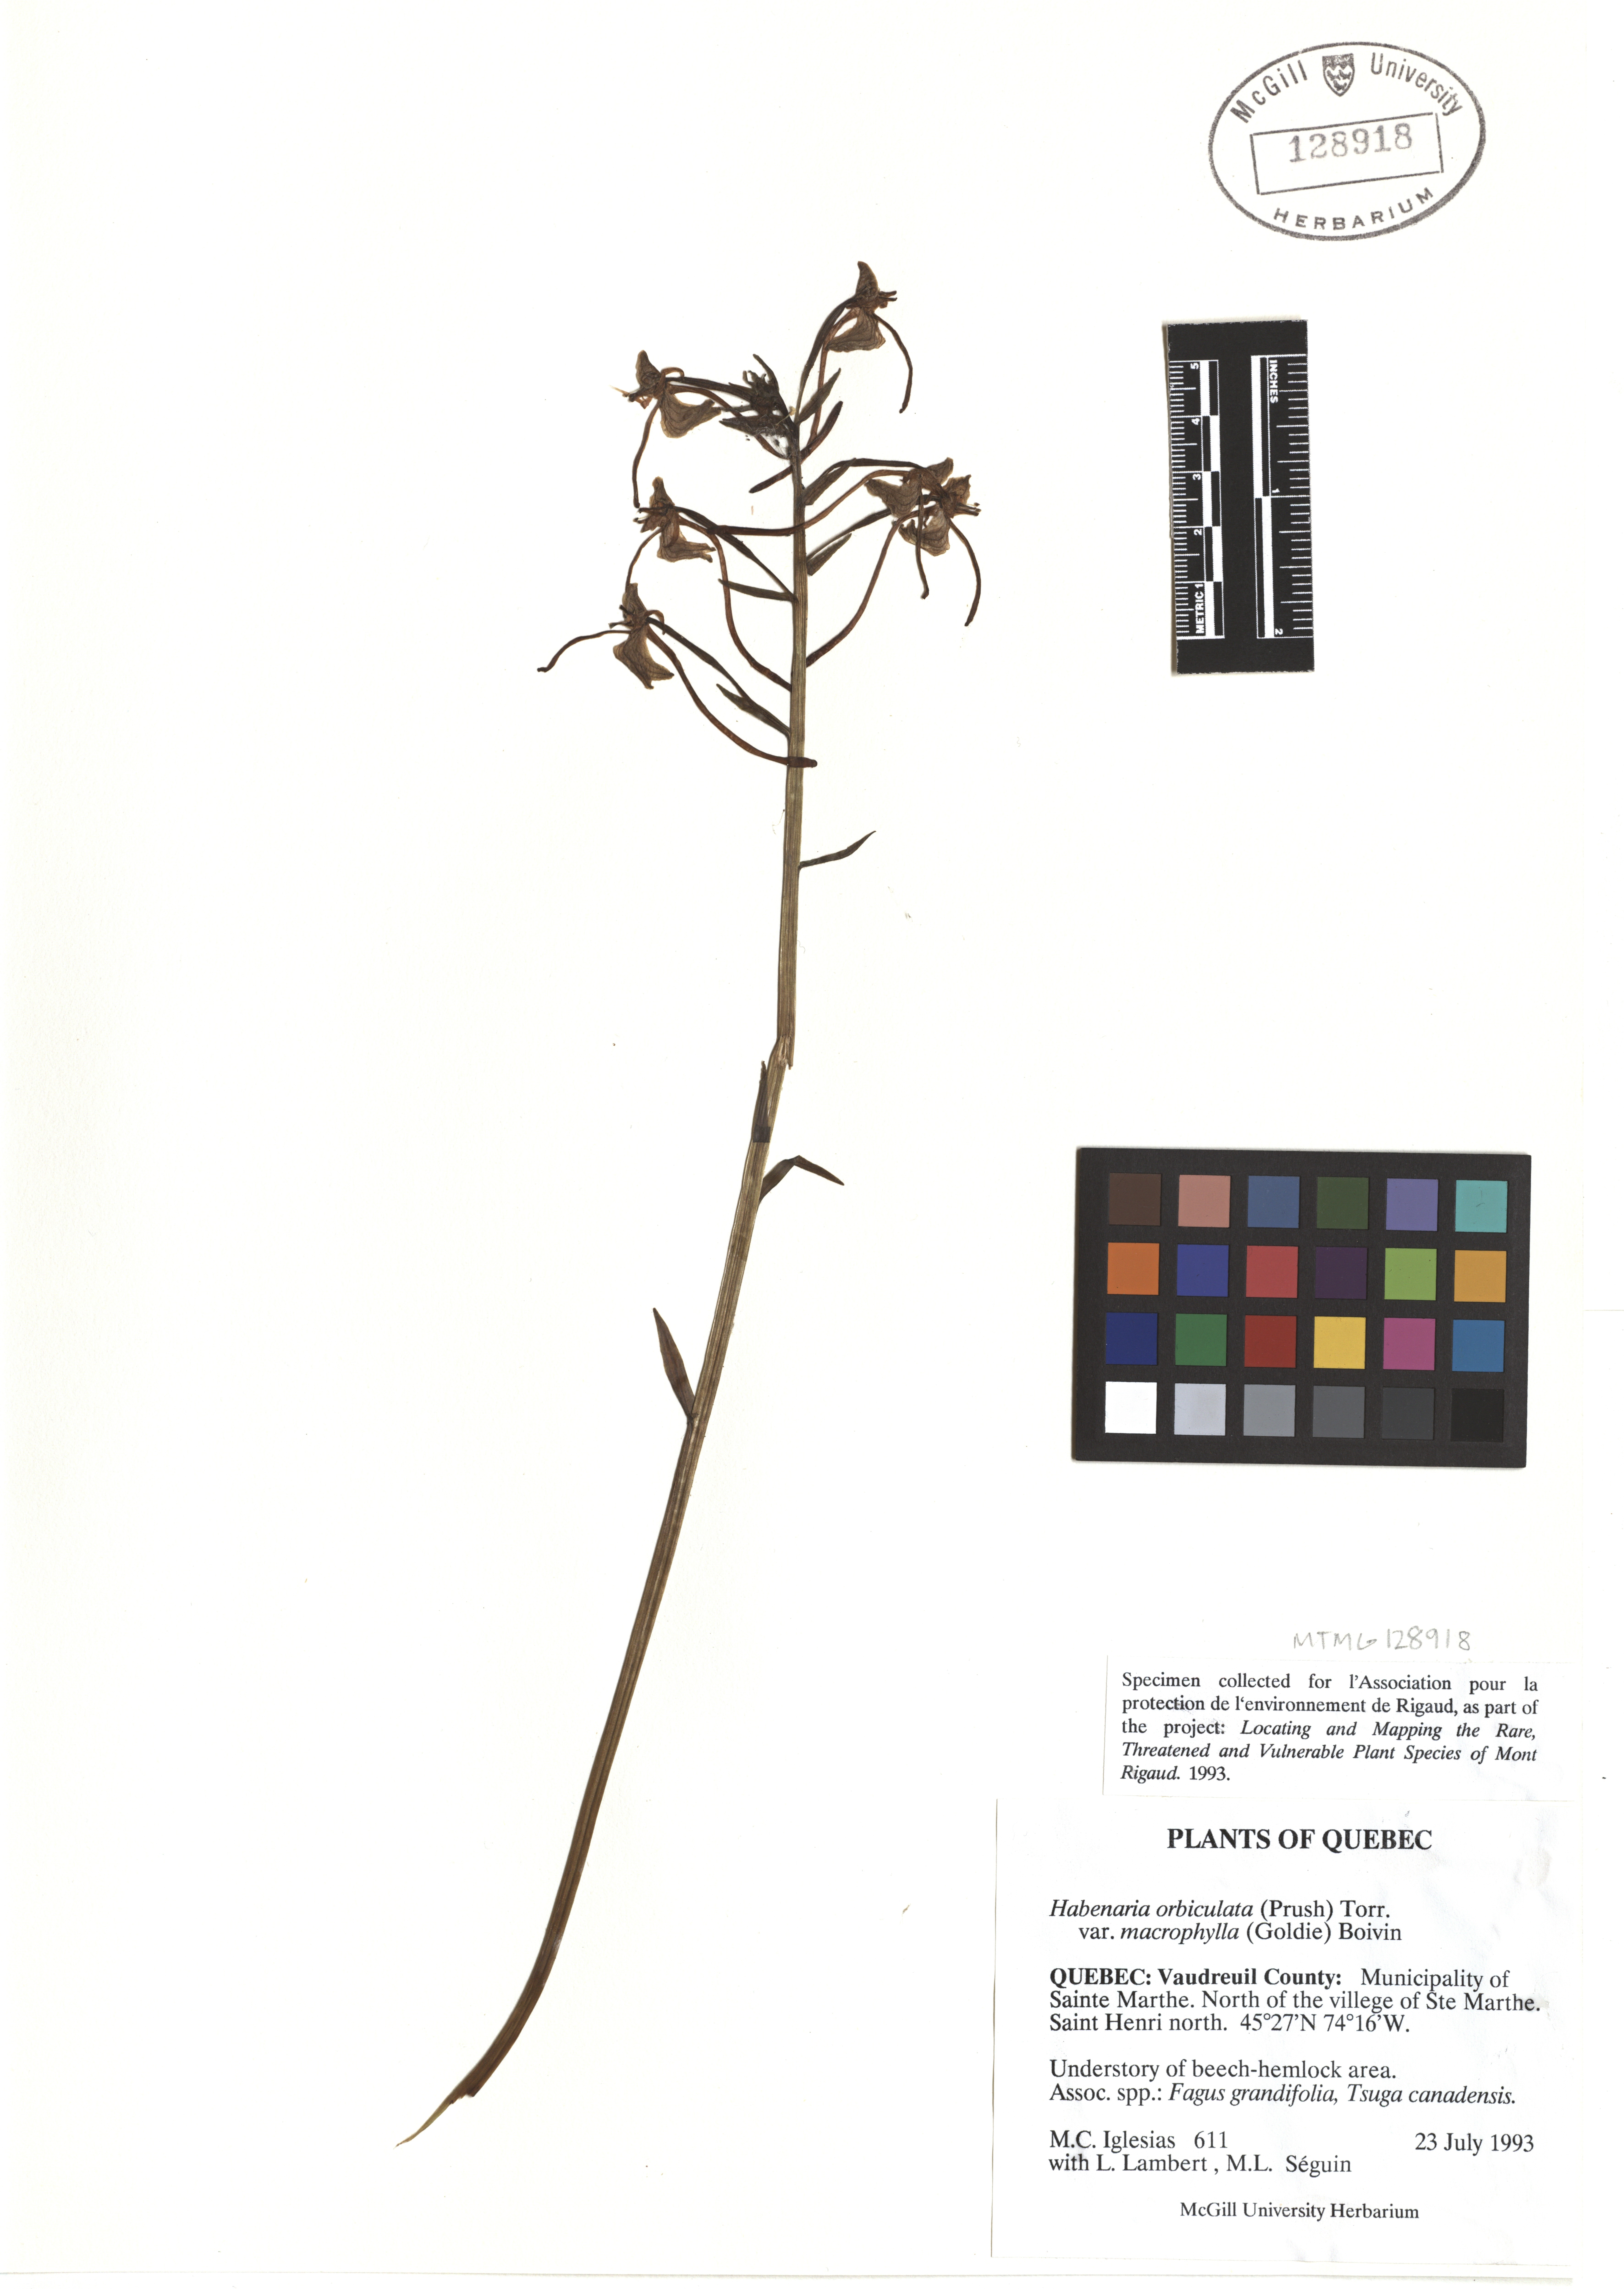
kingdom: Plantae
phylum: Tracheophyta
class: Liliopsida
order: Asparagales
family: Orchidaceae
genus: Platanthera
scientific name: Platanthera orbiculata
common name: Large round-leaved orchid
